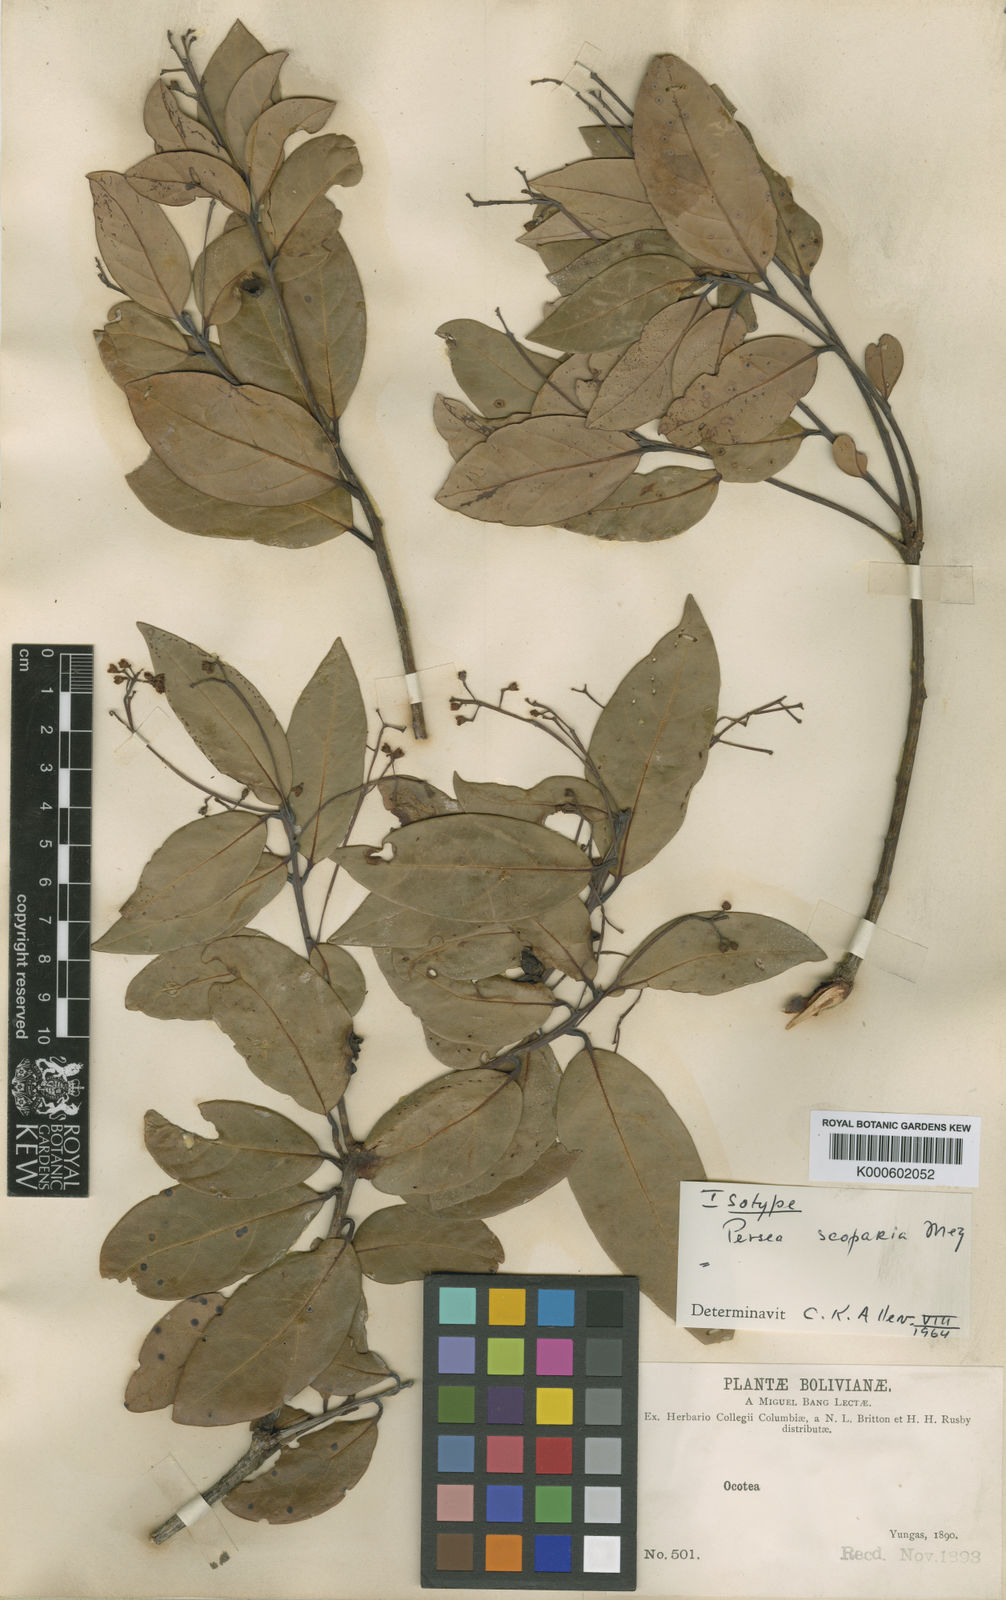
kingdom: Plantae
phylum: Tracheophyta
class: Magnoliopsida
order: Laurales
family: Lauraceae
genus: Persea
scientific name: Persea haenkeana
